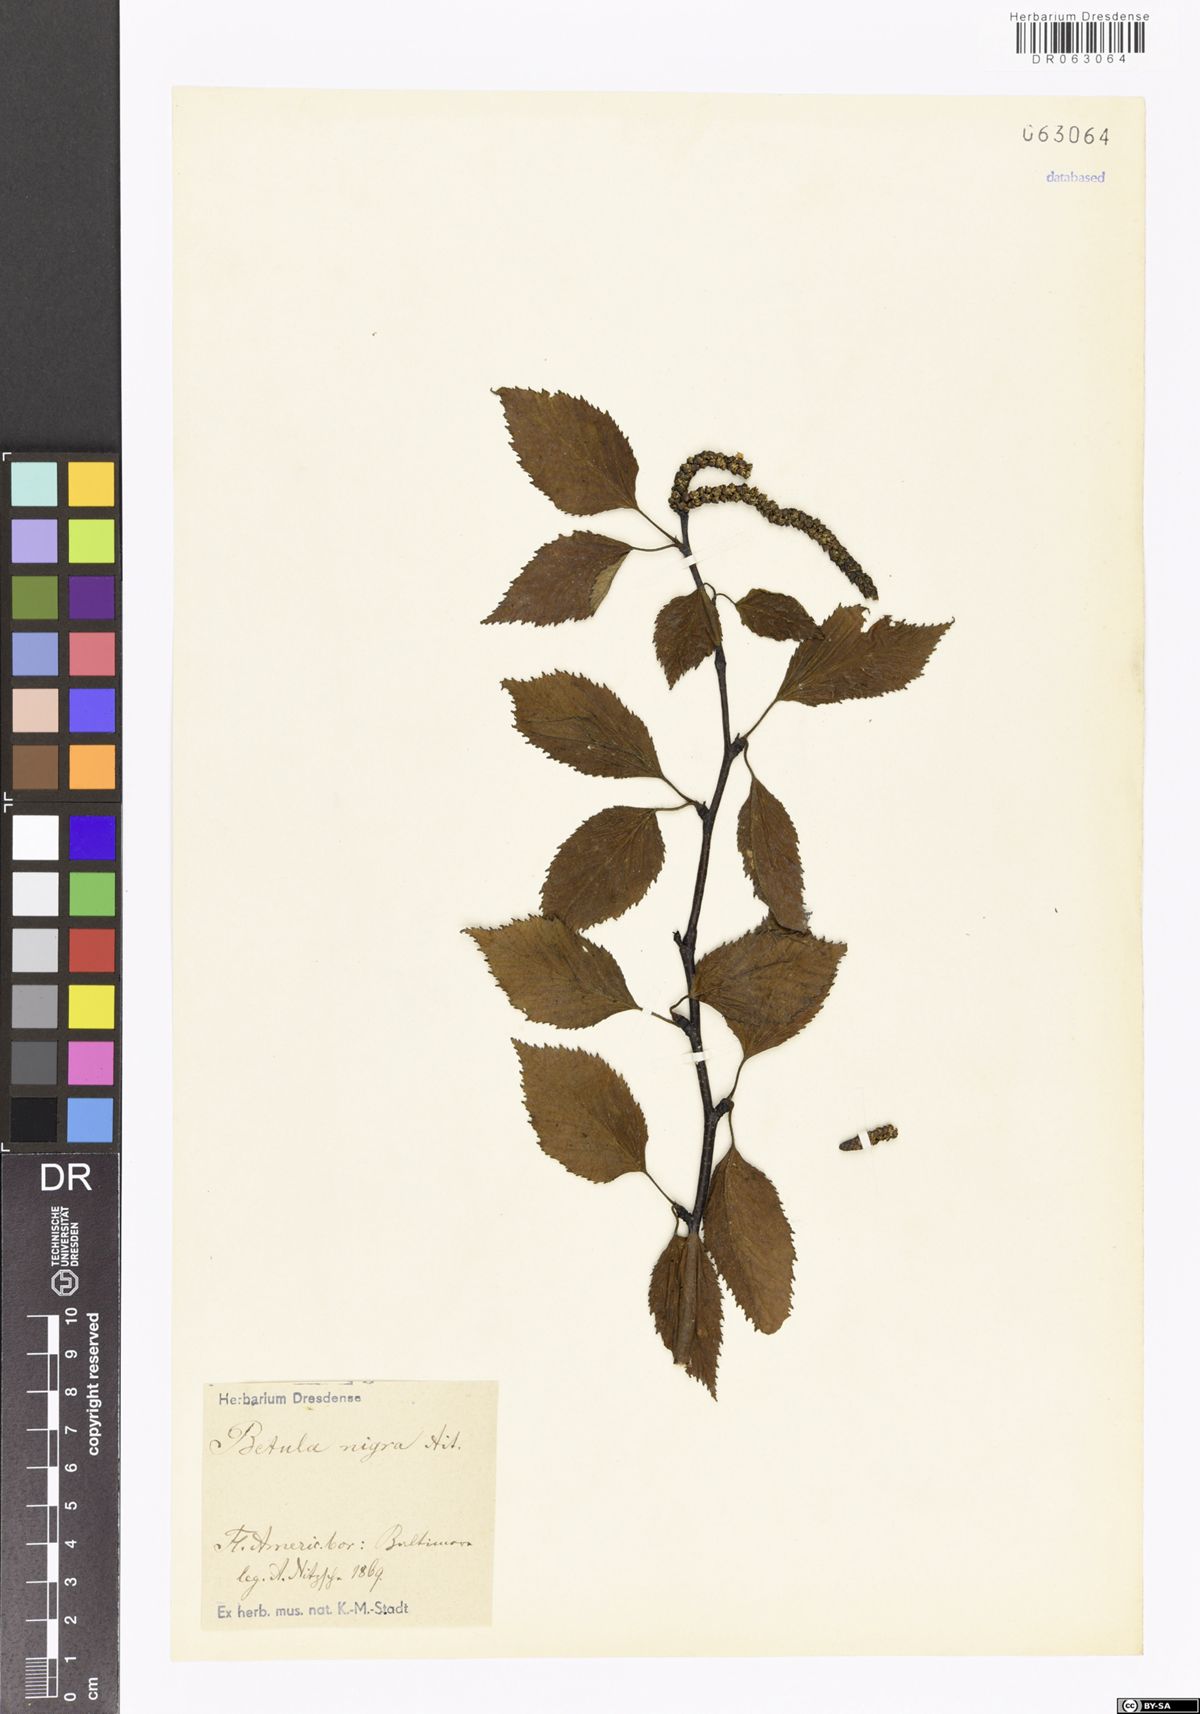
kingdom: Plantae
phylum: Tracheophyta
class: Magnoliopsida
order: Fagales
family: Betulaceae
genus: Betula
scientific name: Betula nigra
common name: Black birch
